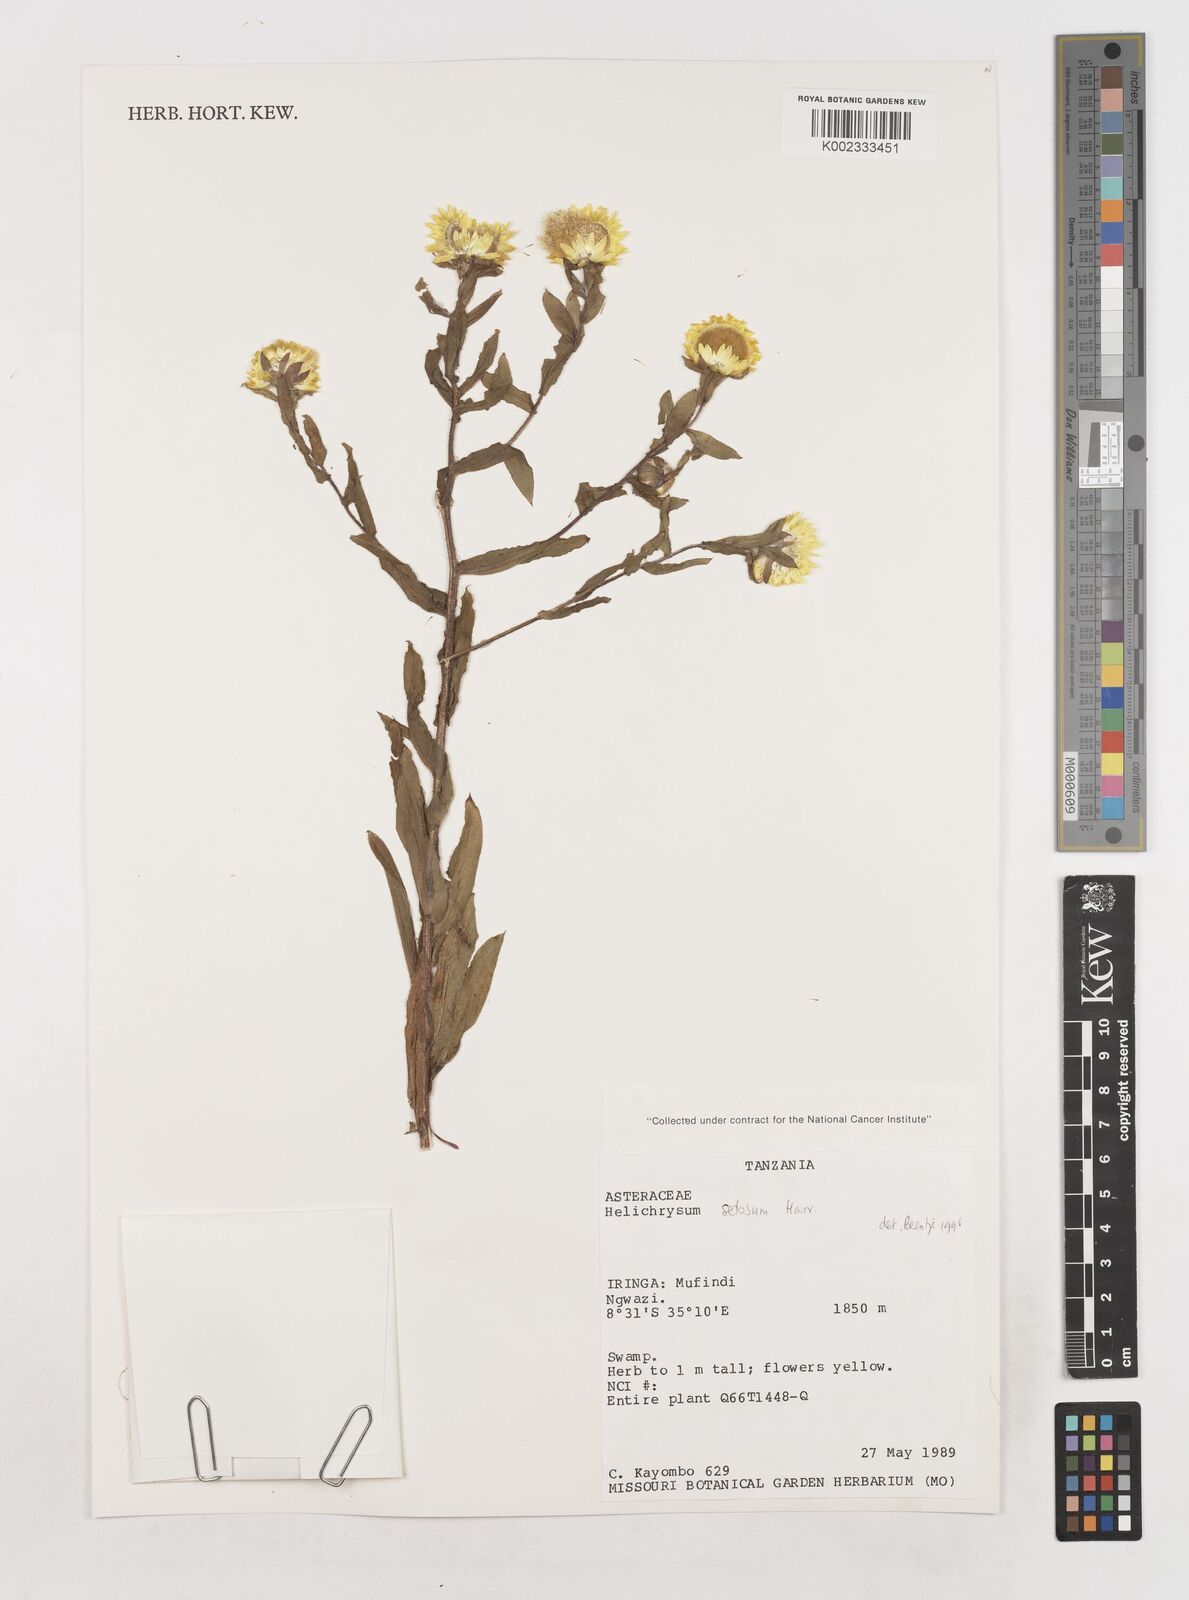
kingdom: Plantae
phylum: Tracheophyta
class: Magnoliopsida
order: Asterales
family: Asteraceae
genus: Helichrysum
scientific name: Helichrysum setosum
